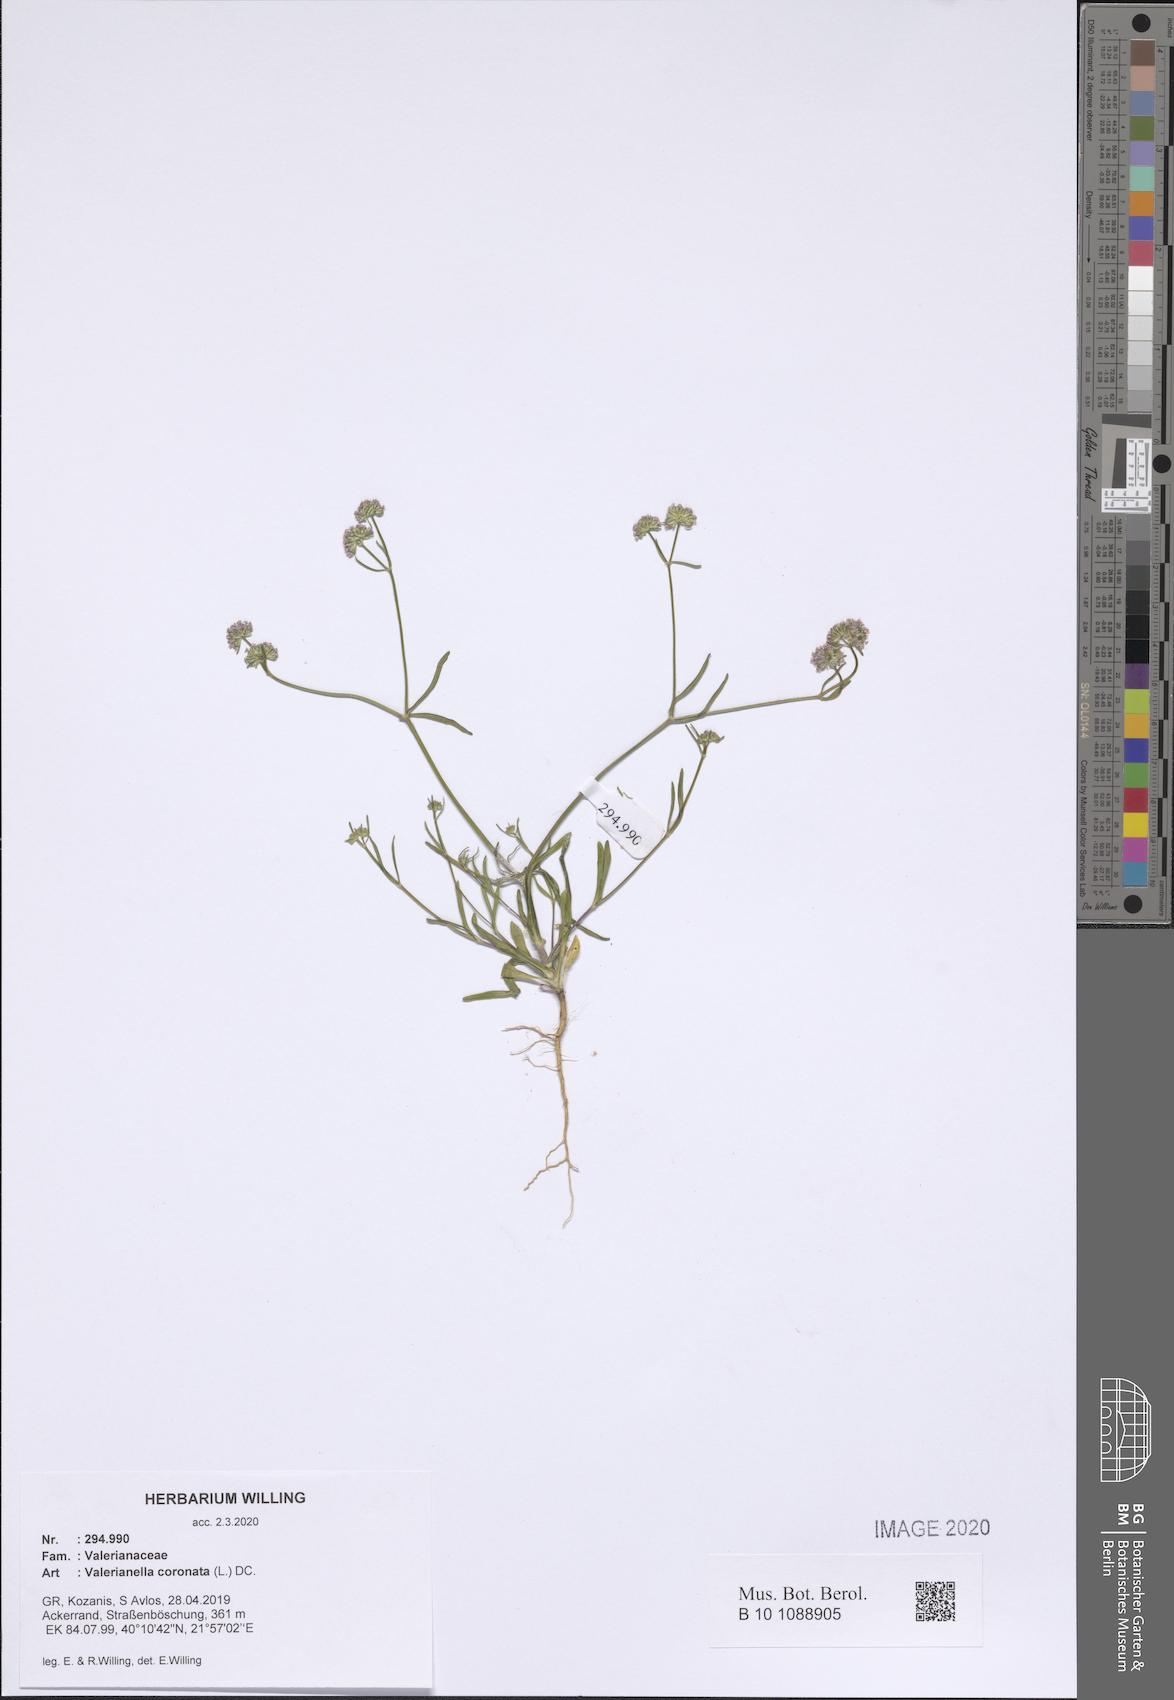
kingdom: Plantae
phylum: Tracheophyta
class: Magnoliopsida
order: Dipsacales
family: Caprifoliaceae
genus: Valerianella
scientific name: Valerianella coronata
